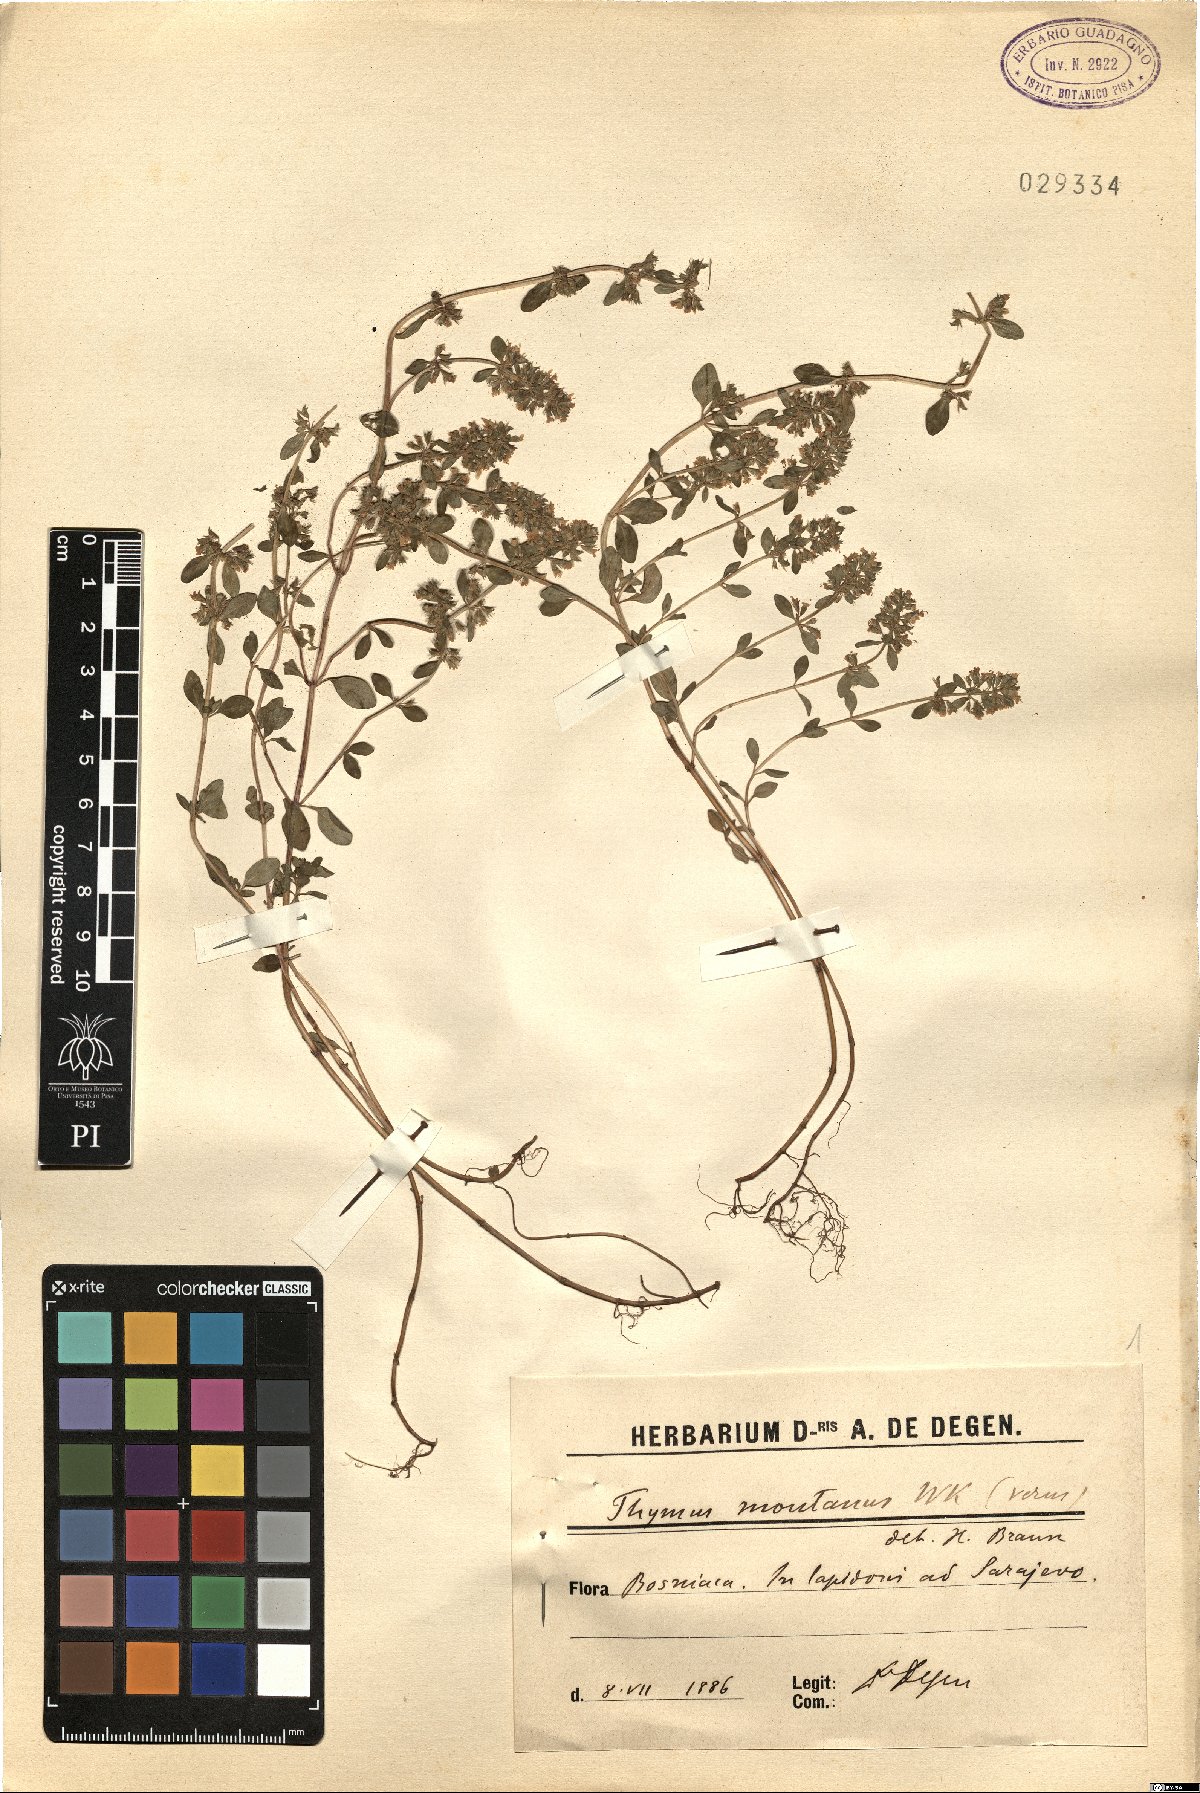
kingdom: Plantae
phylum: Tracheophyta
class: Magnoliopsida
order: Lamiales
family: Lamiaceae
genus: Thymus
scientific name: Thymus pulegioides
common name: Large thyme
